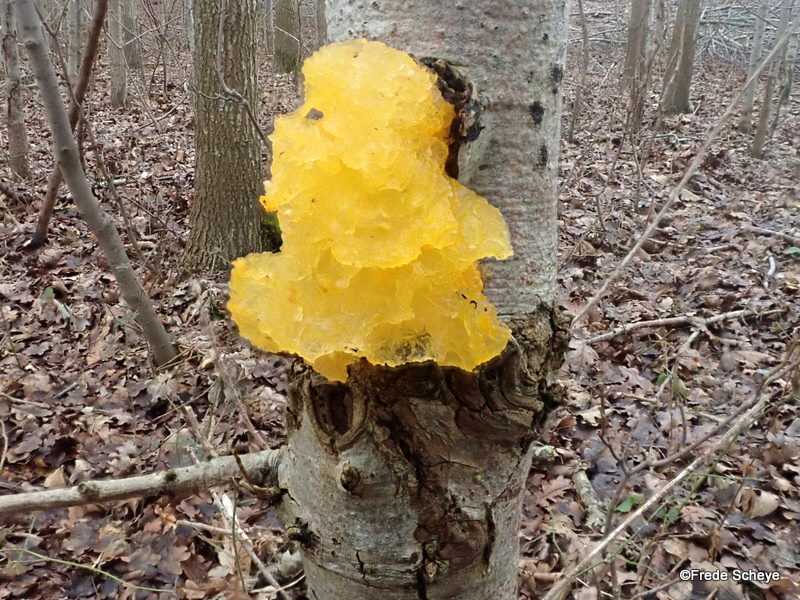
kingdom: Fungi
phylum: Basidiomycota
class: Tremellomycetes
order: Tremellales
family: Tremellaceae
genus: Tremella
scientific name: Tremella mesenterica
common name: gul bævresvamp
